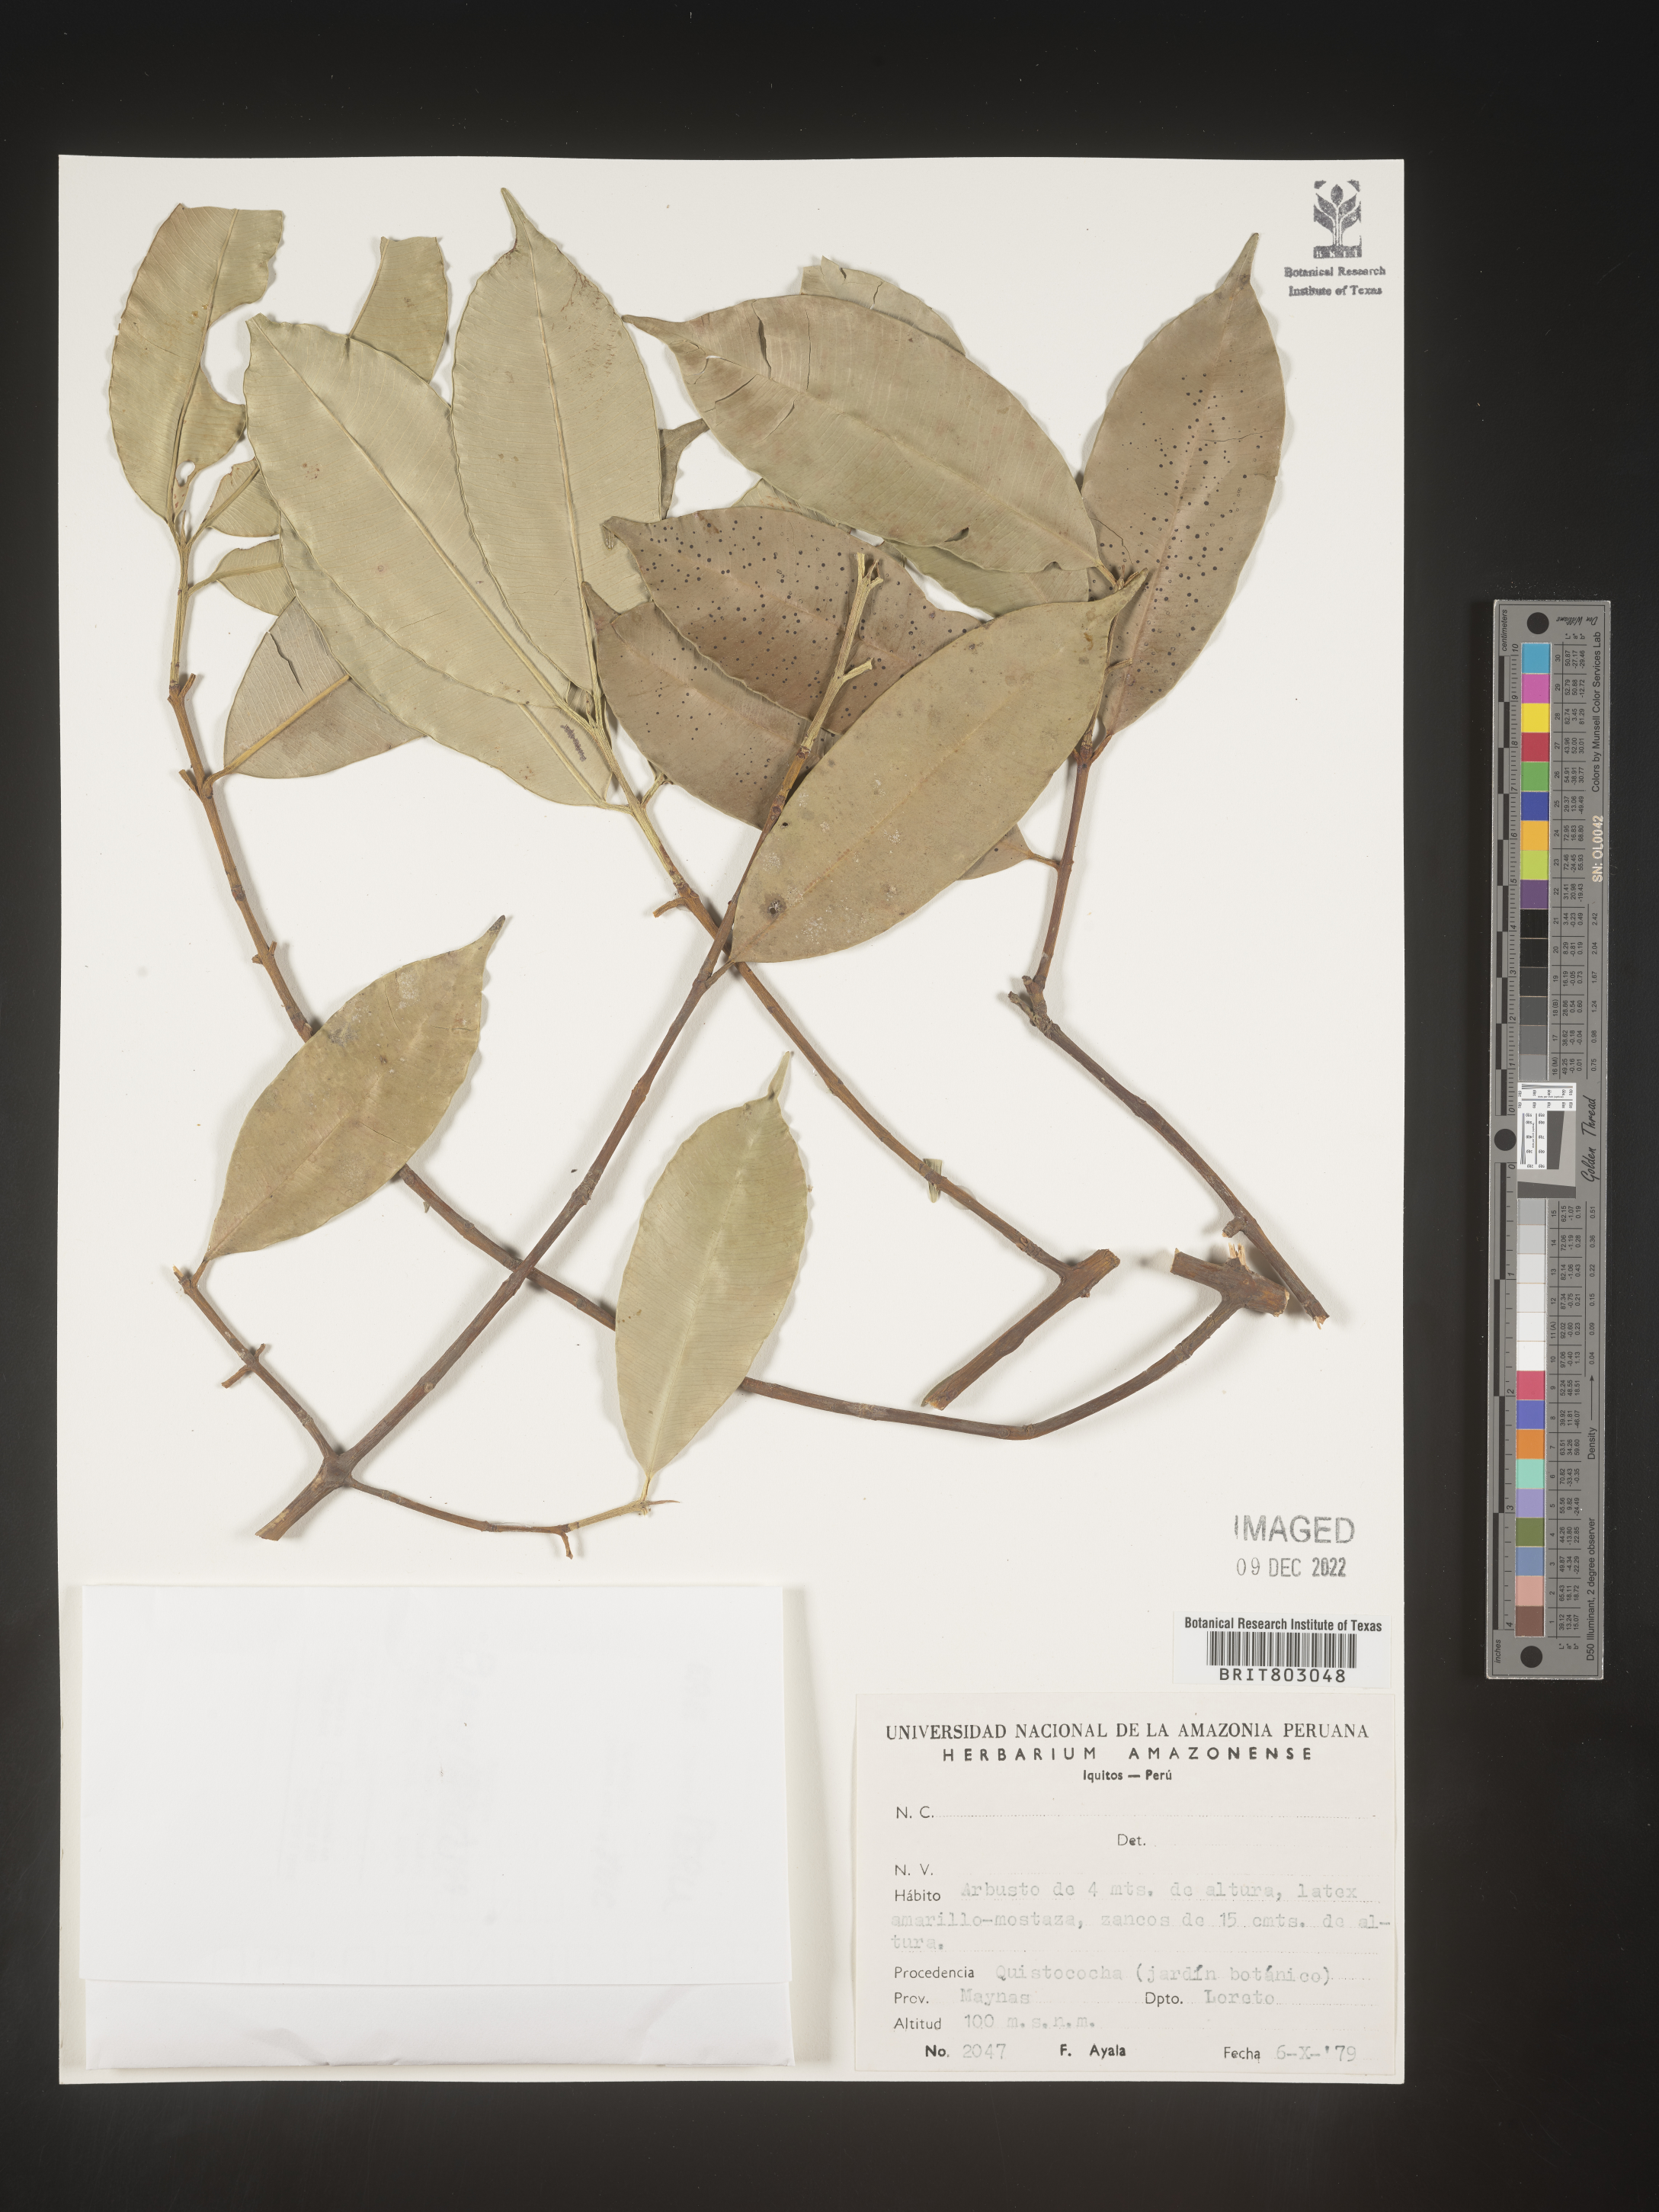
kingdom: Plantae
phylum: Tracheophyta
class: Magnoliopsida
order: Malpighiales
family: Clusiaceae
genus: Symphonia
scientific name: Symphonia
